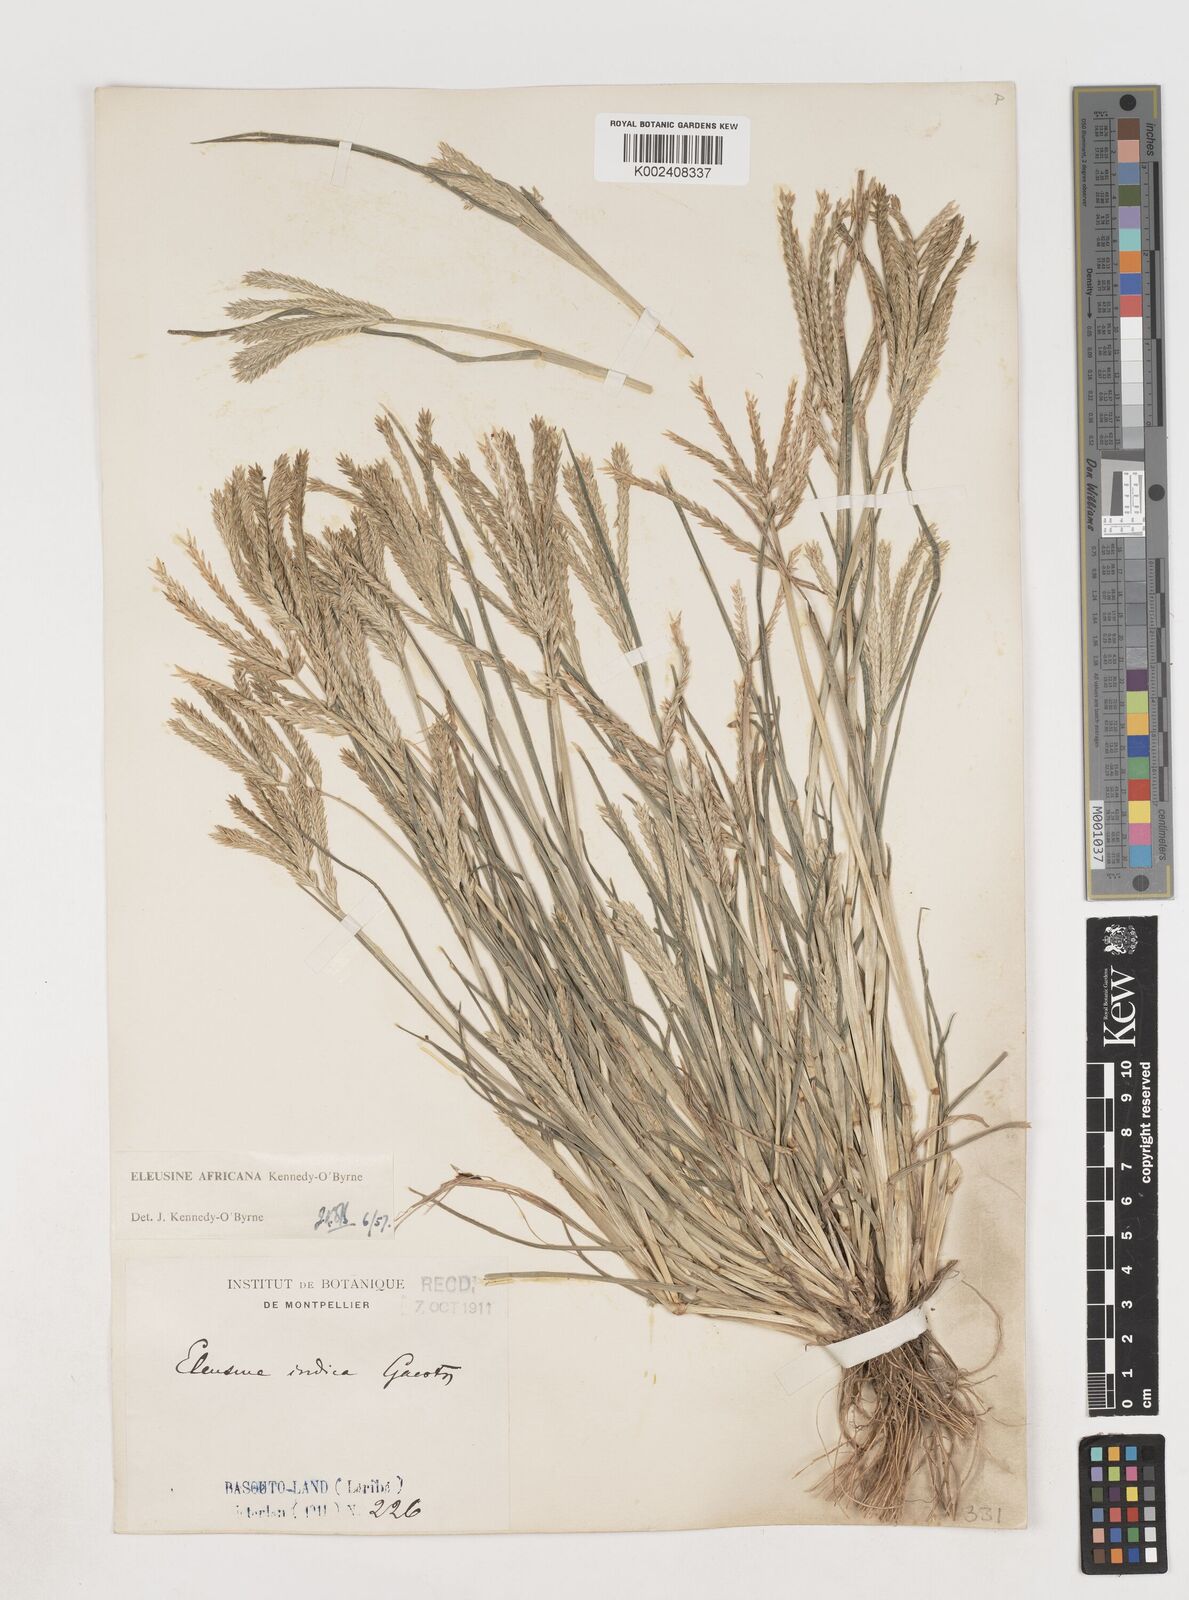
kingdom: Plantae
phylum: Tracheophyta
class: Liliopsida
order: Poales
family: Poaceae
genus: Eleusine
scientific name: Eleusine africana
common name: Wild african finger millet
